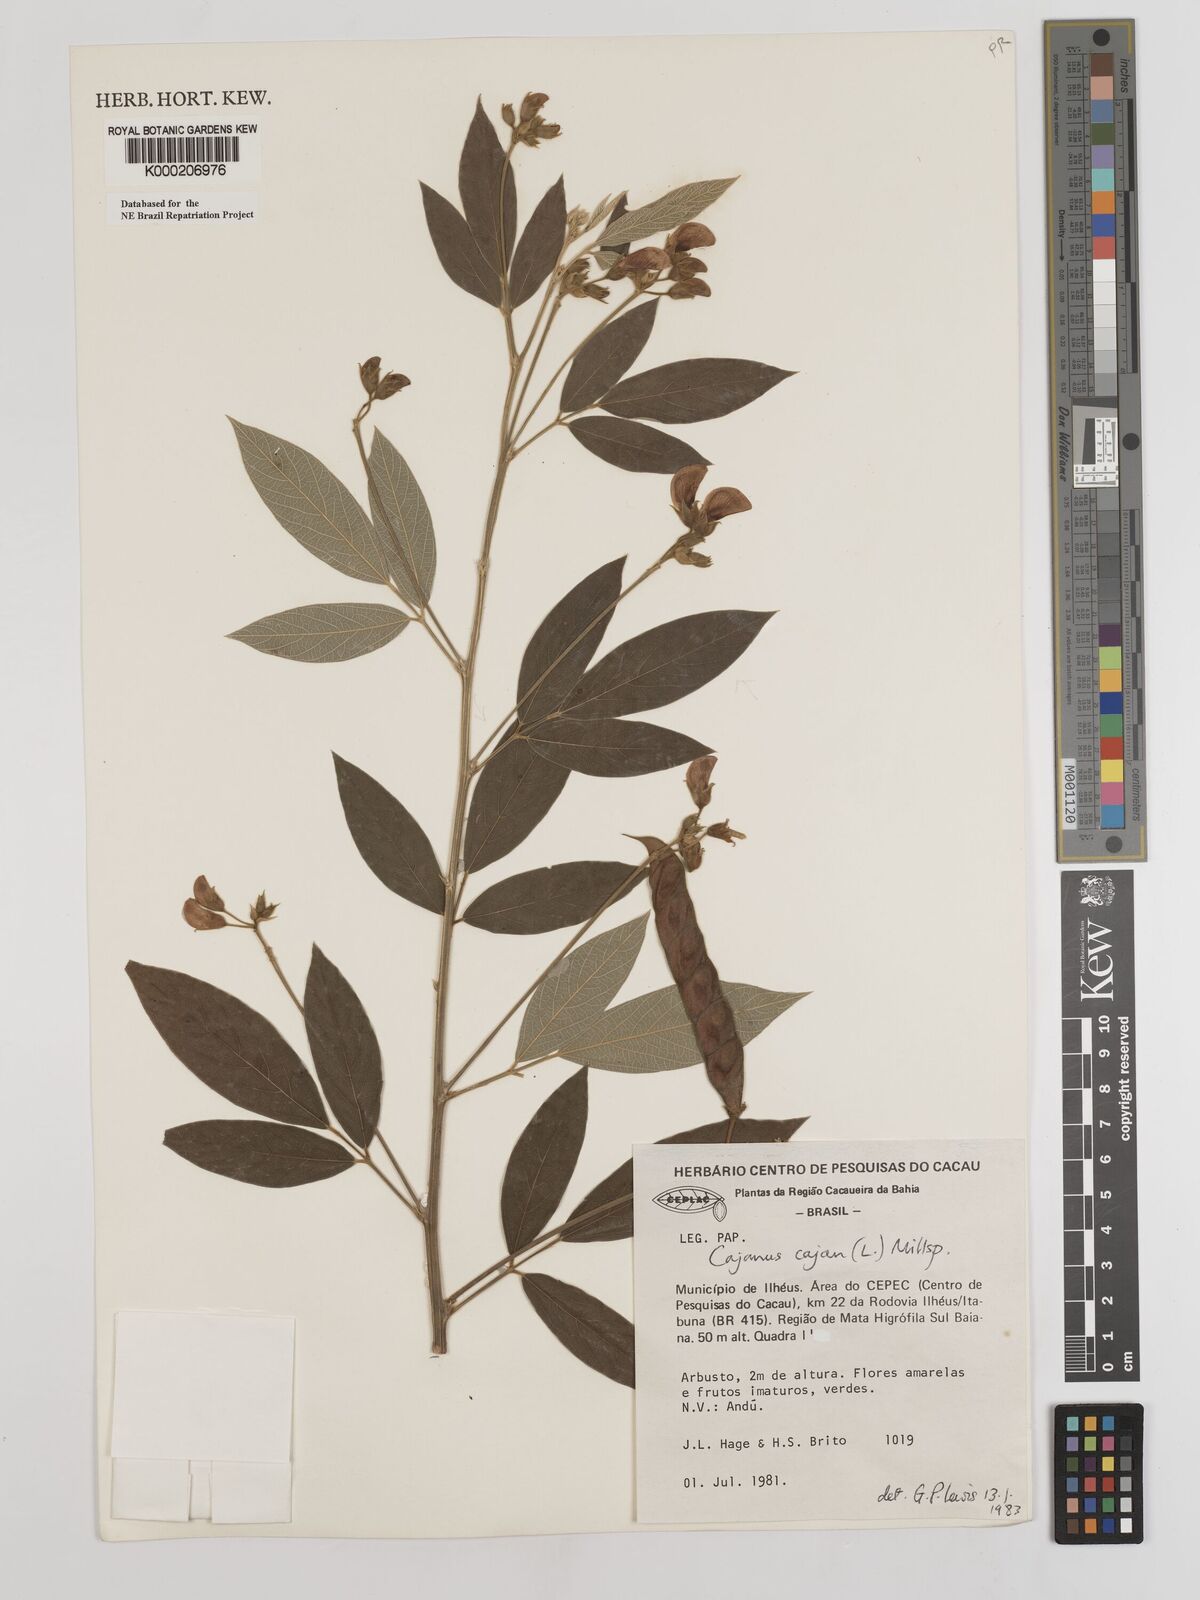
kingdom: Plantae
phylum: Tracheophyta
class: Magnoliopsida
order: Fabales
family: Fabaceae
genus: Cajanus
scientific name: Cajanus
